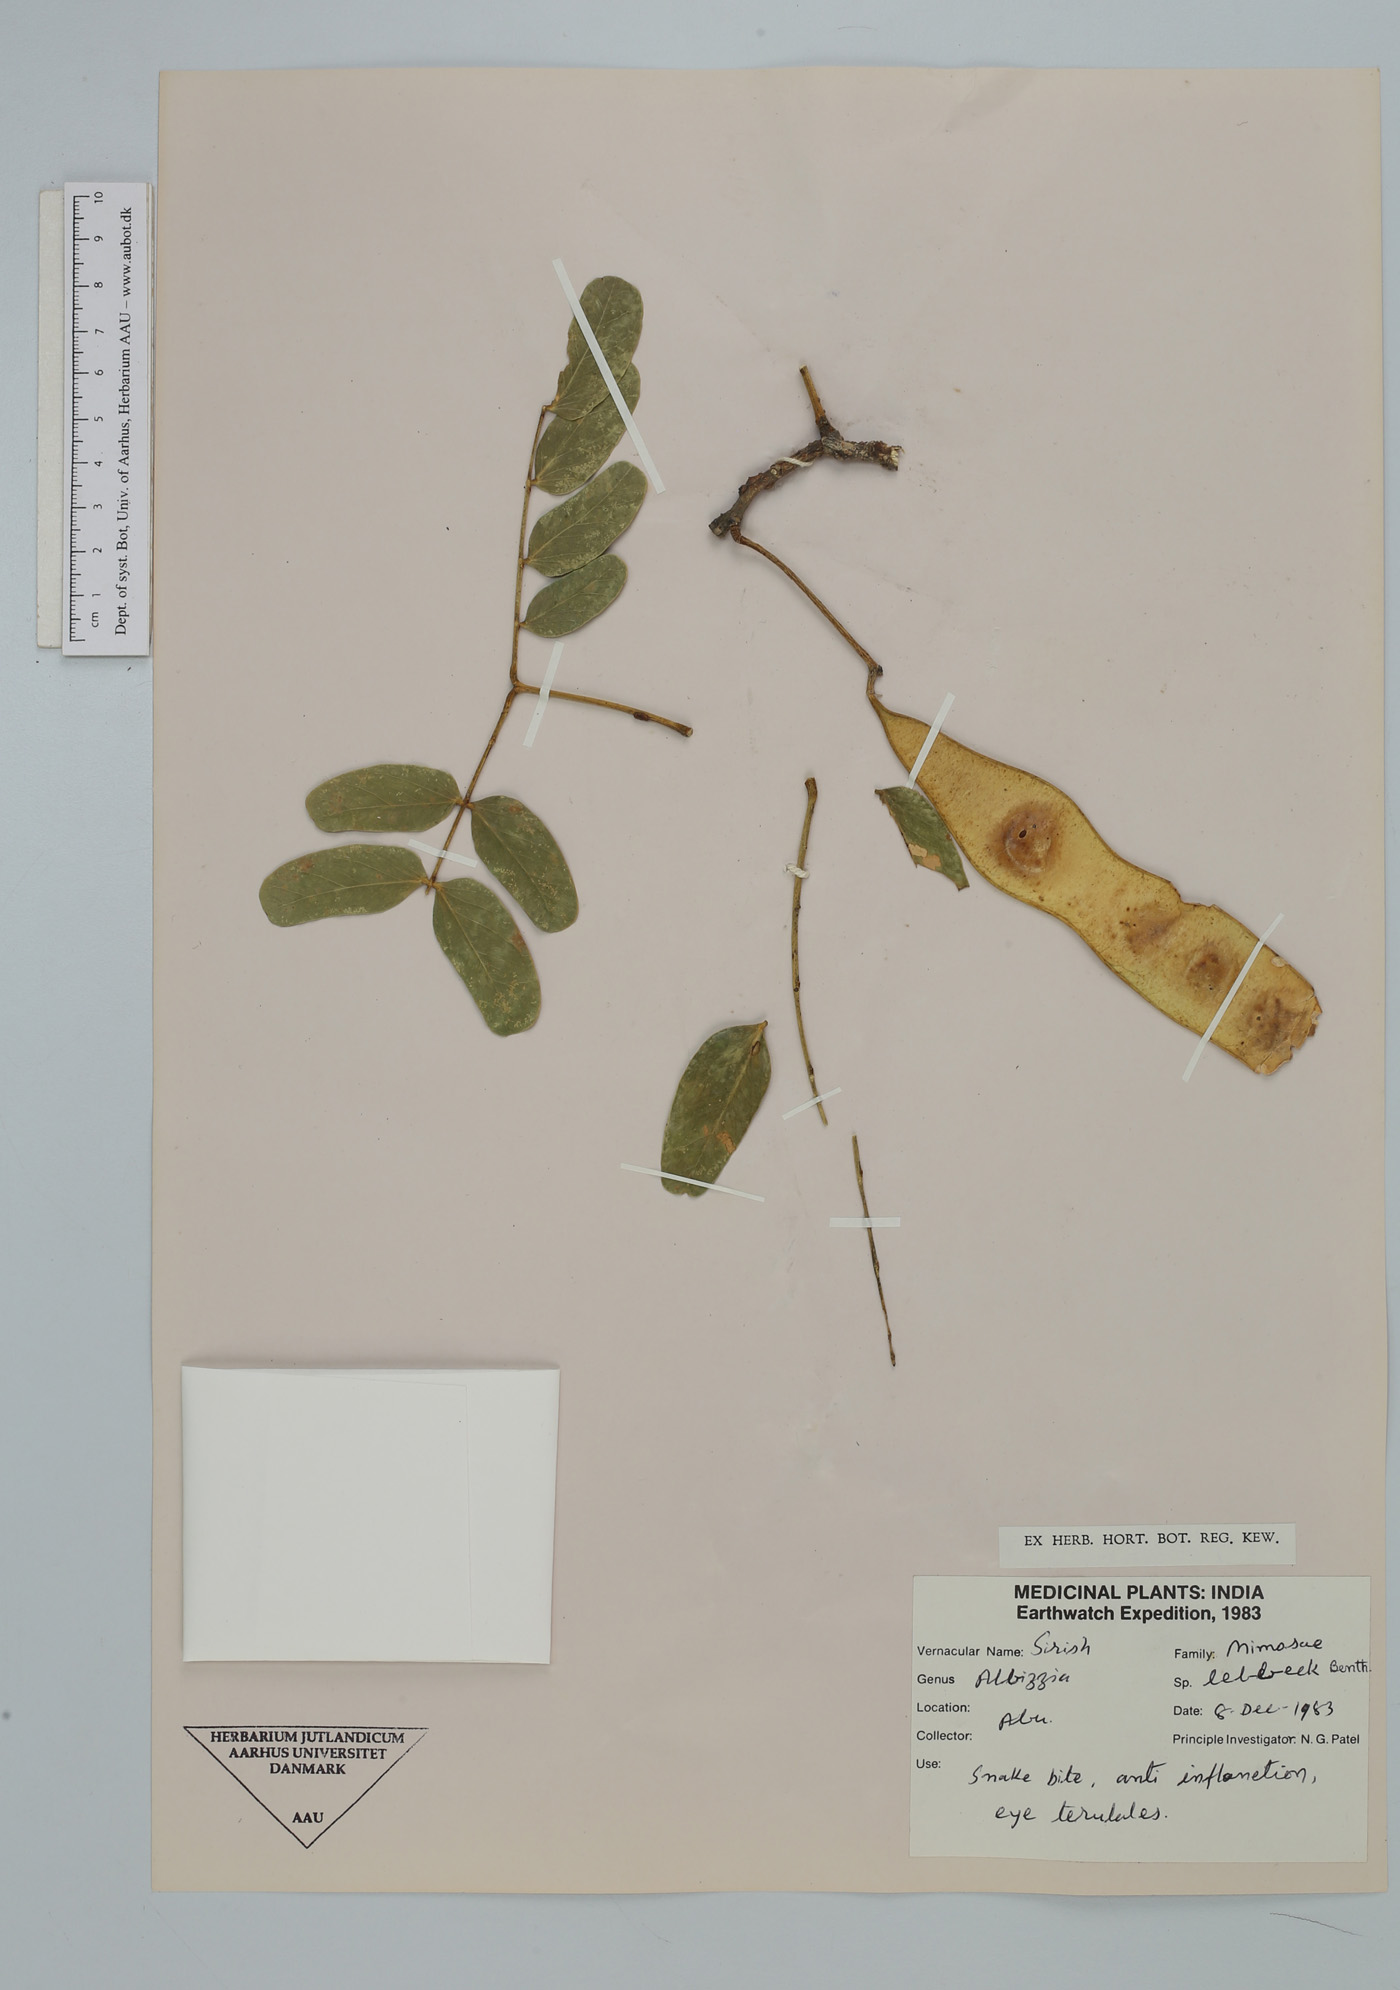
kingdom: Plantae
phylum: Tracheophyta
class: Magnoliopsida
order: Fabales
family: Fabaceae
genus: Albizia
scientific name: Albizia lebbeck
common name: Woman's tongue
